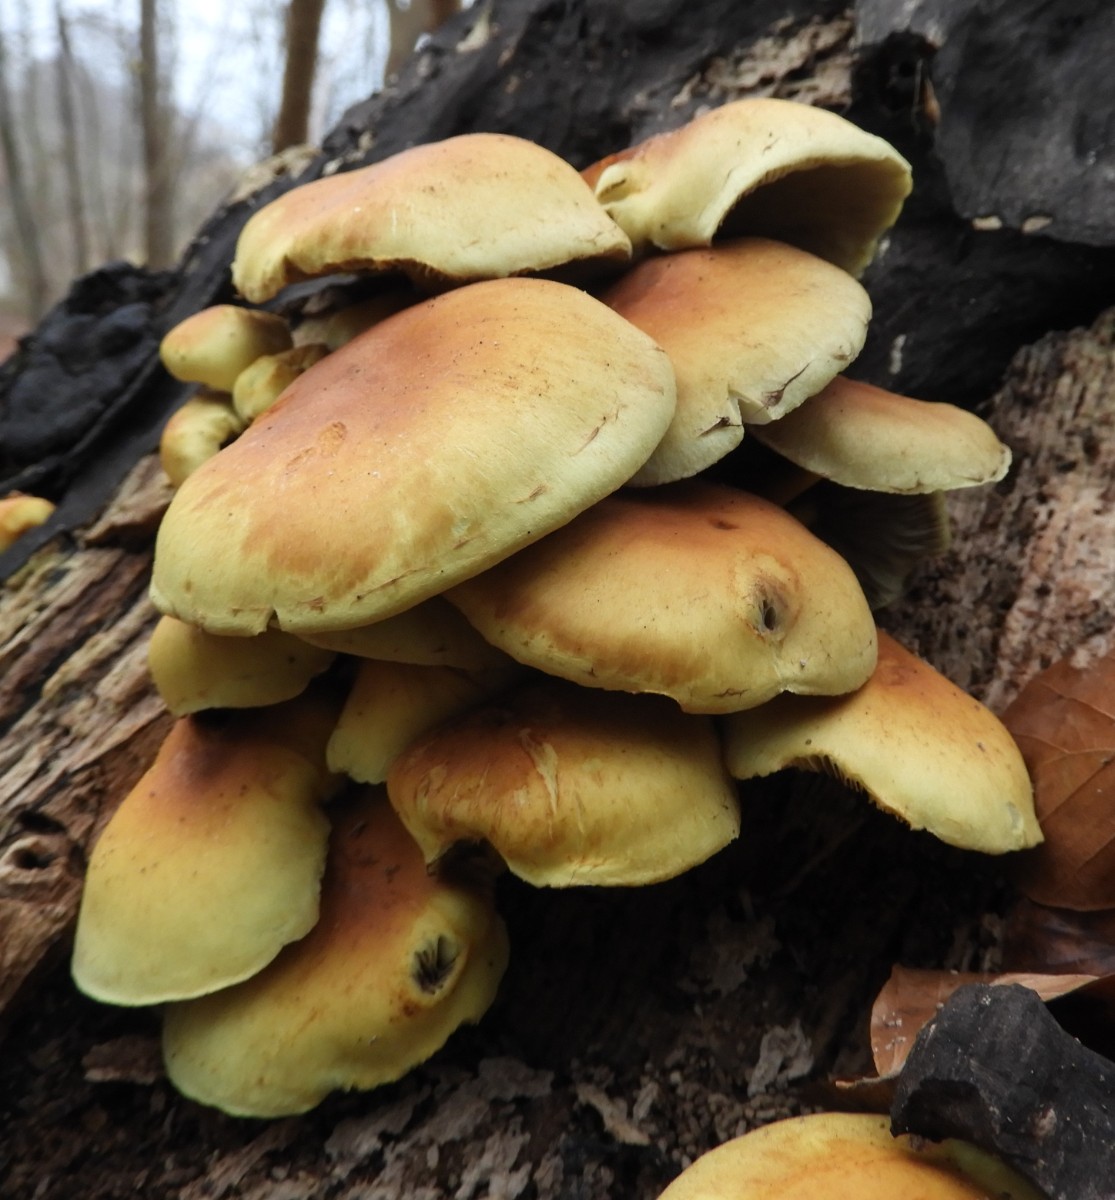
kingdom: Fungi
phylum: Basidiomycota
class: Agaricomycetes
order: Agaricales
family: Strophariaceae
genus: Hypholoma
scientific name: Hypholoma fasciculare
